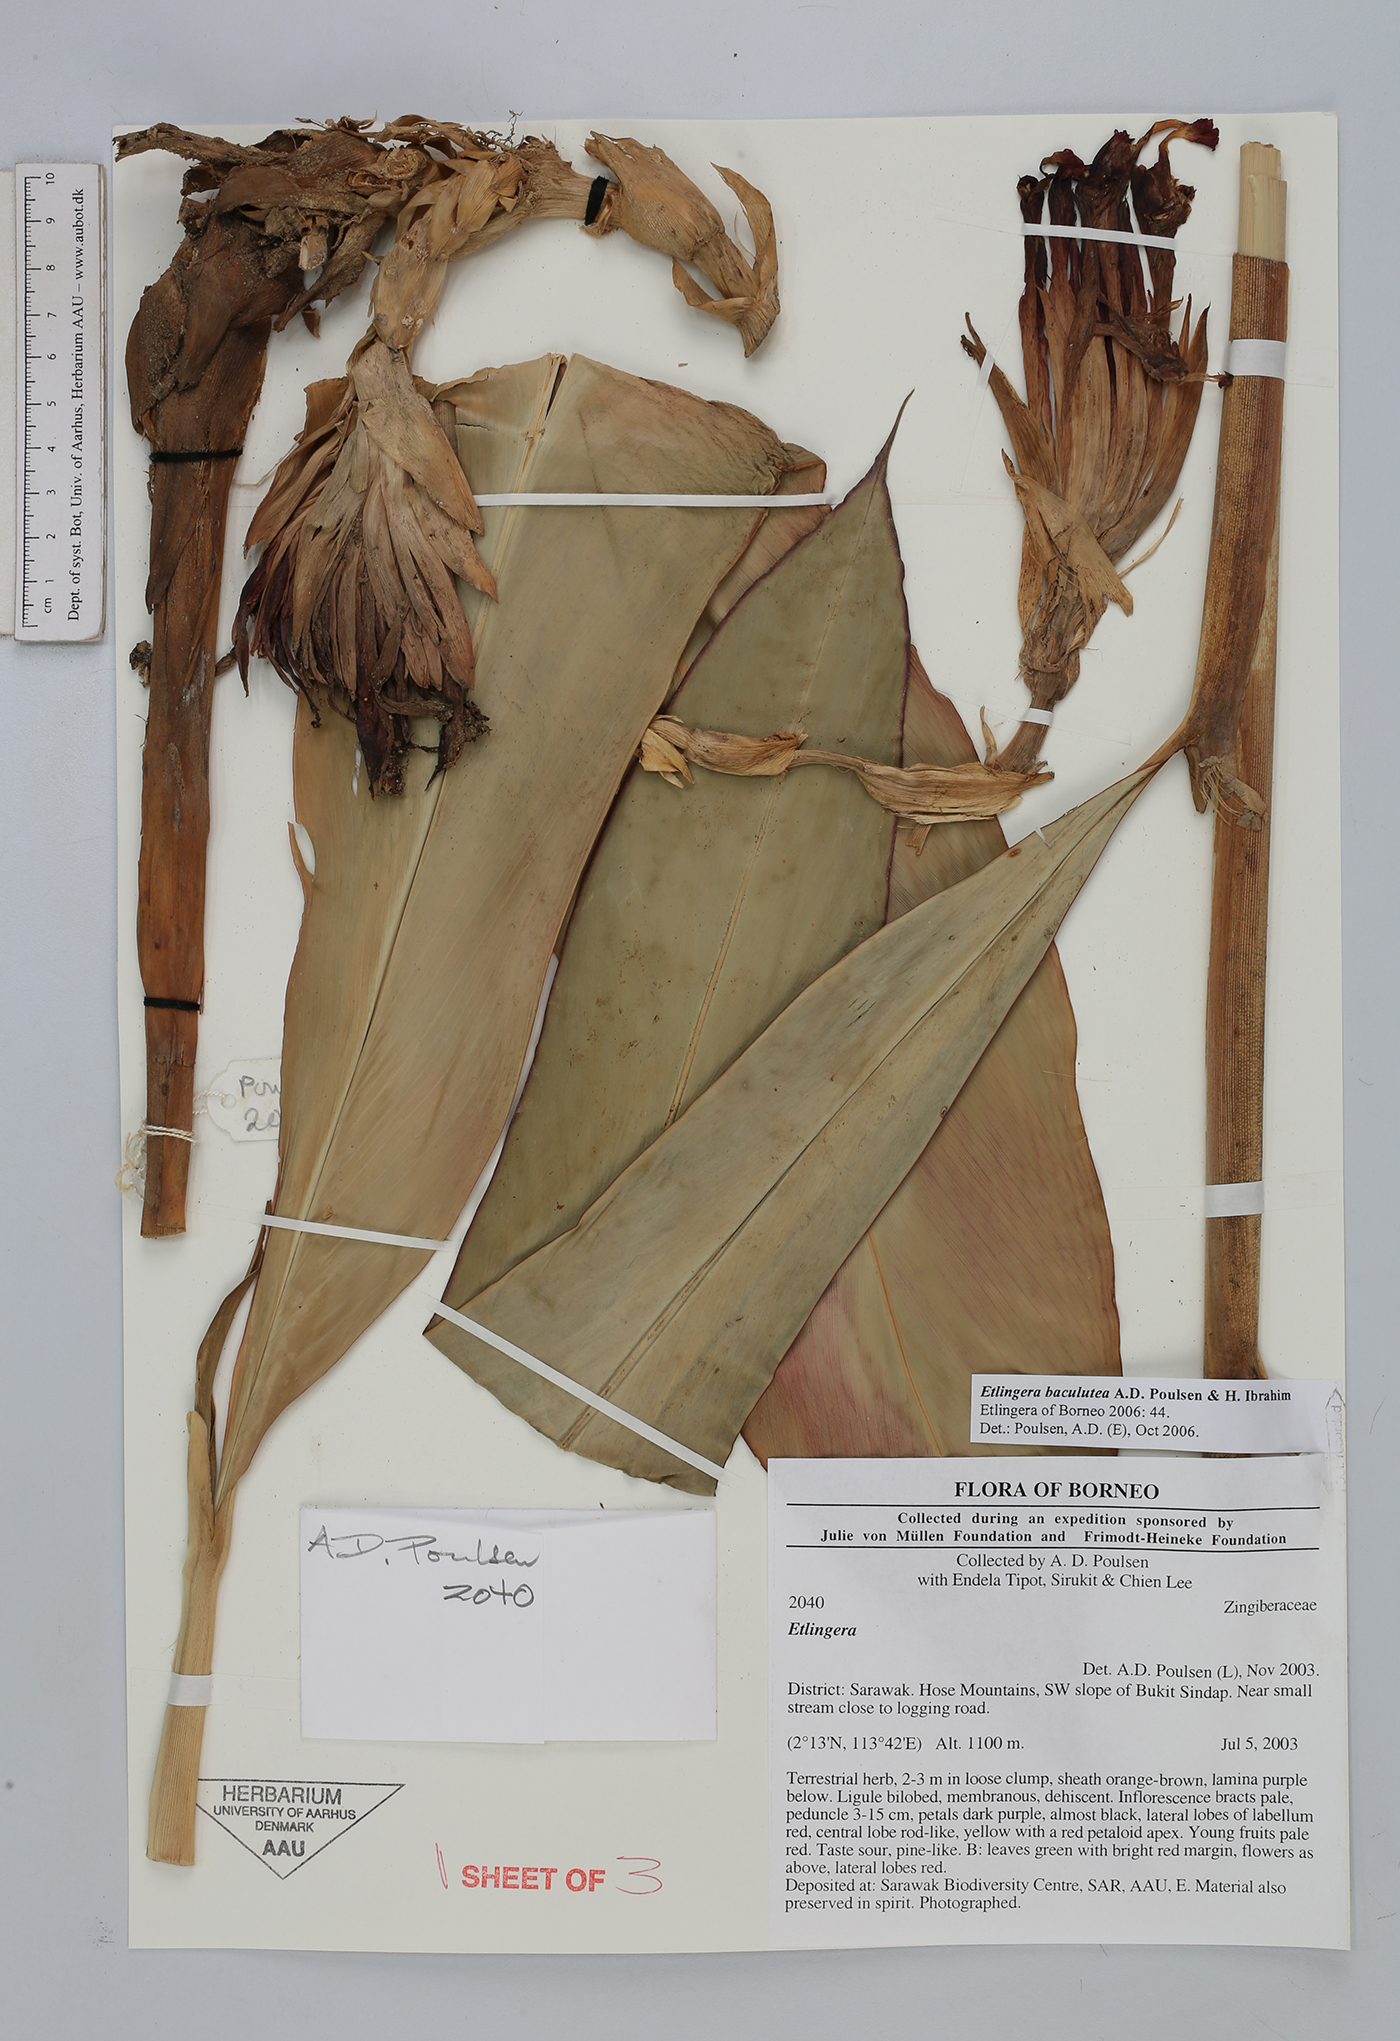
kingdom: Plantae
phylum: Tracheophyta
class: Liliopsida
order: Zingiberales
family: Zingiberaceae
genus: Etlingera
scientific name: Etlingera baculutea
